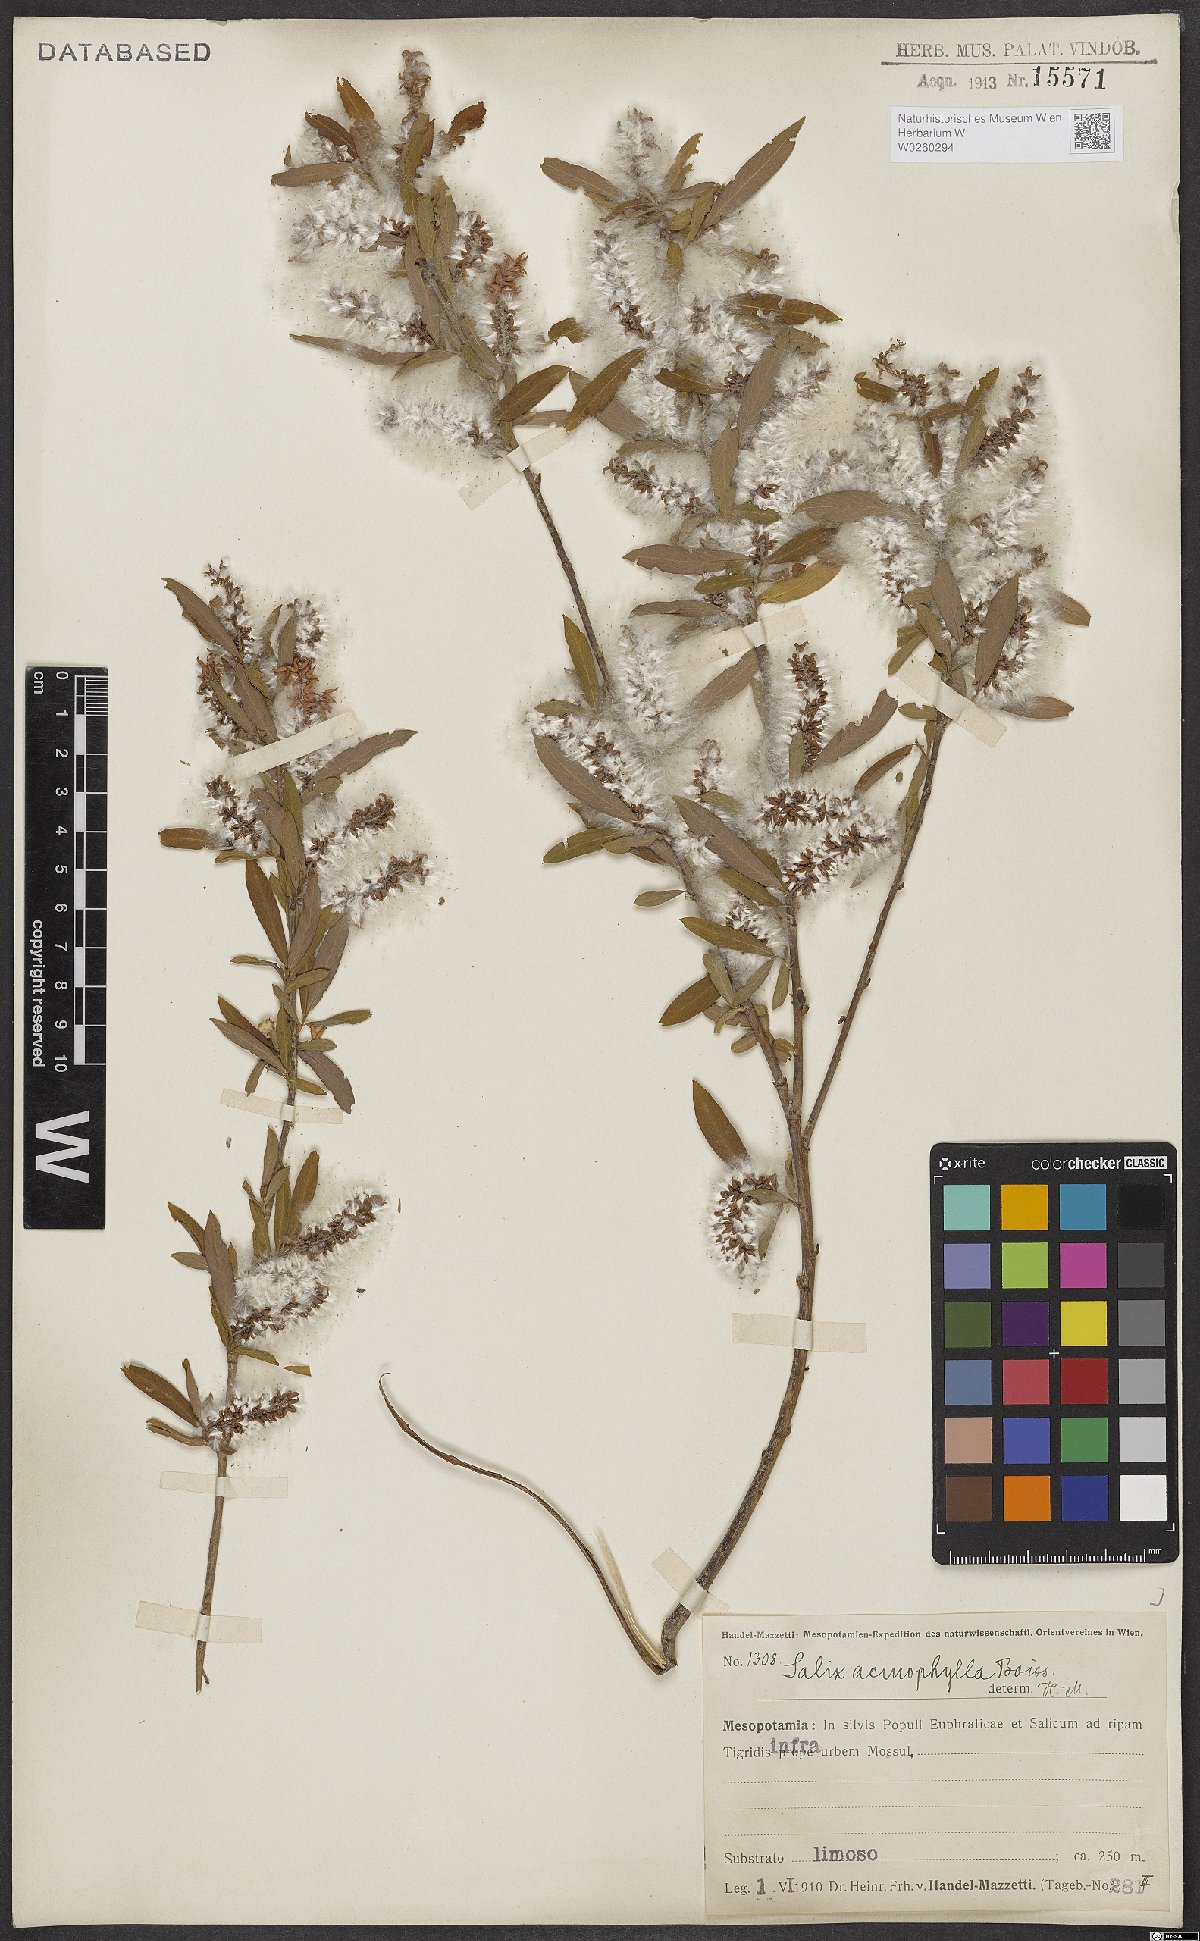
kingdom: Plantae
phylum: Tracheophyta
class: Magnoliopsida
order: Malpighiales
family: Salicaceae
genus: Salix
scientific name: Salix acmophylla
